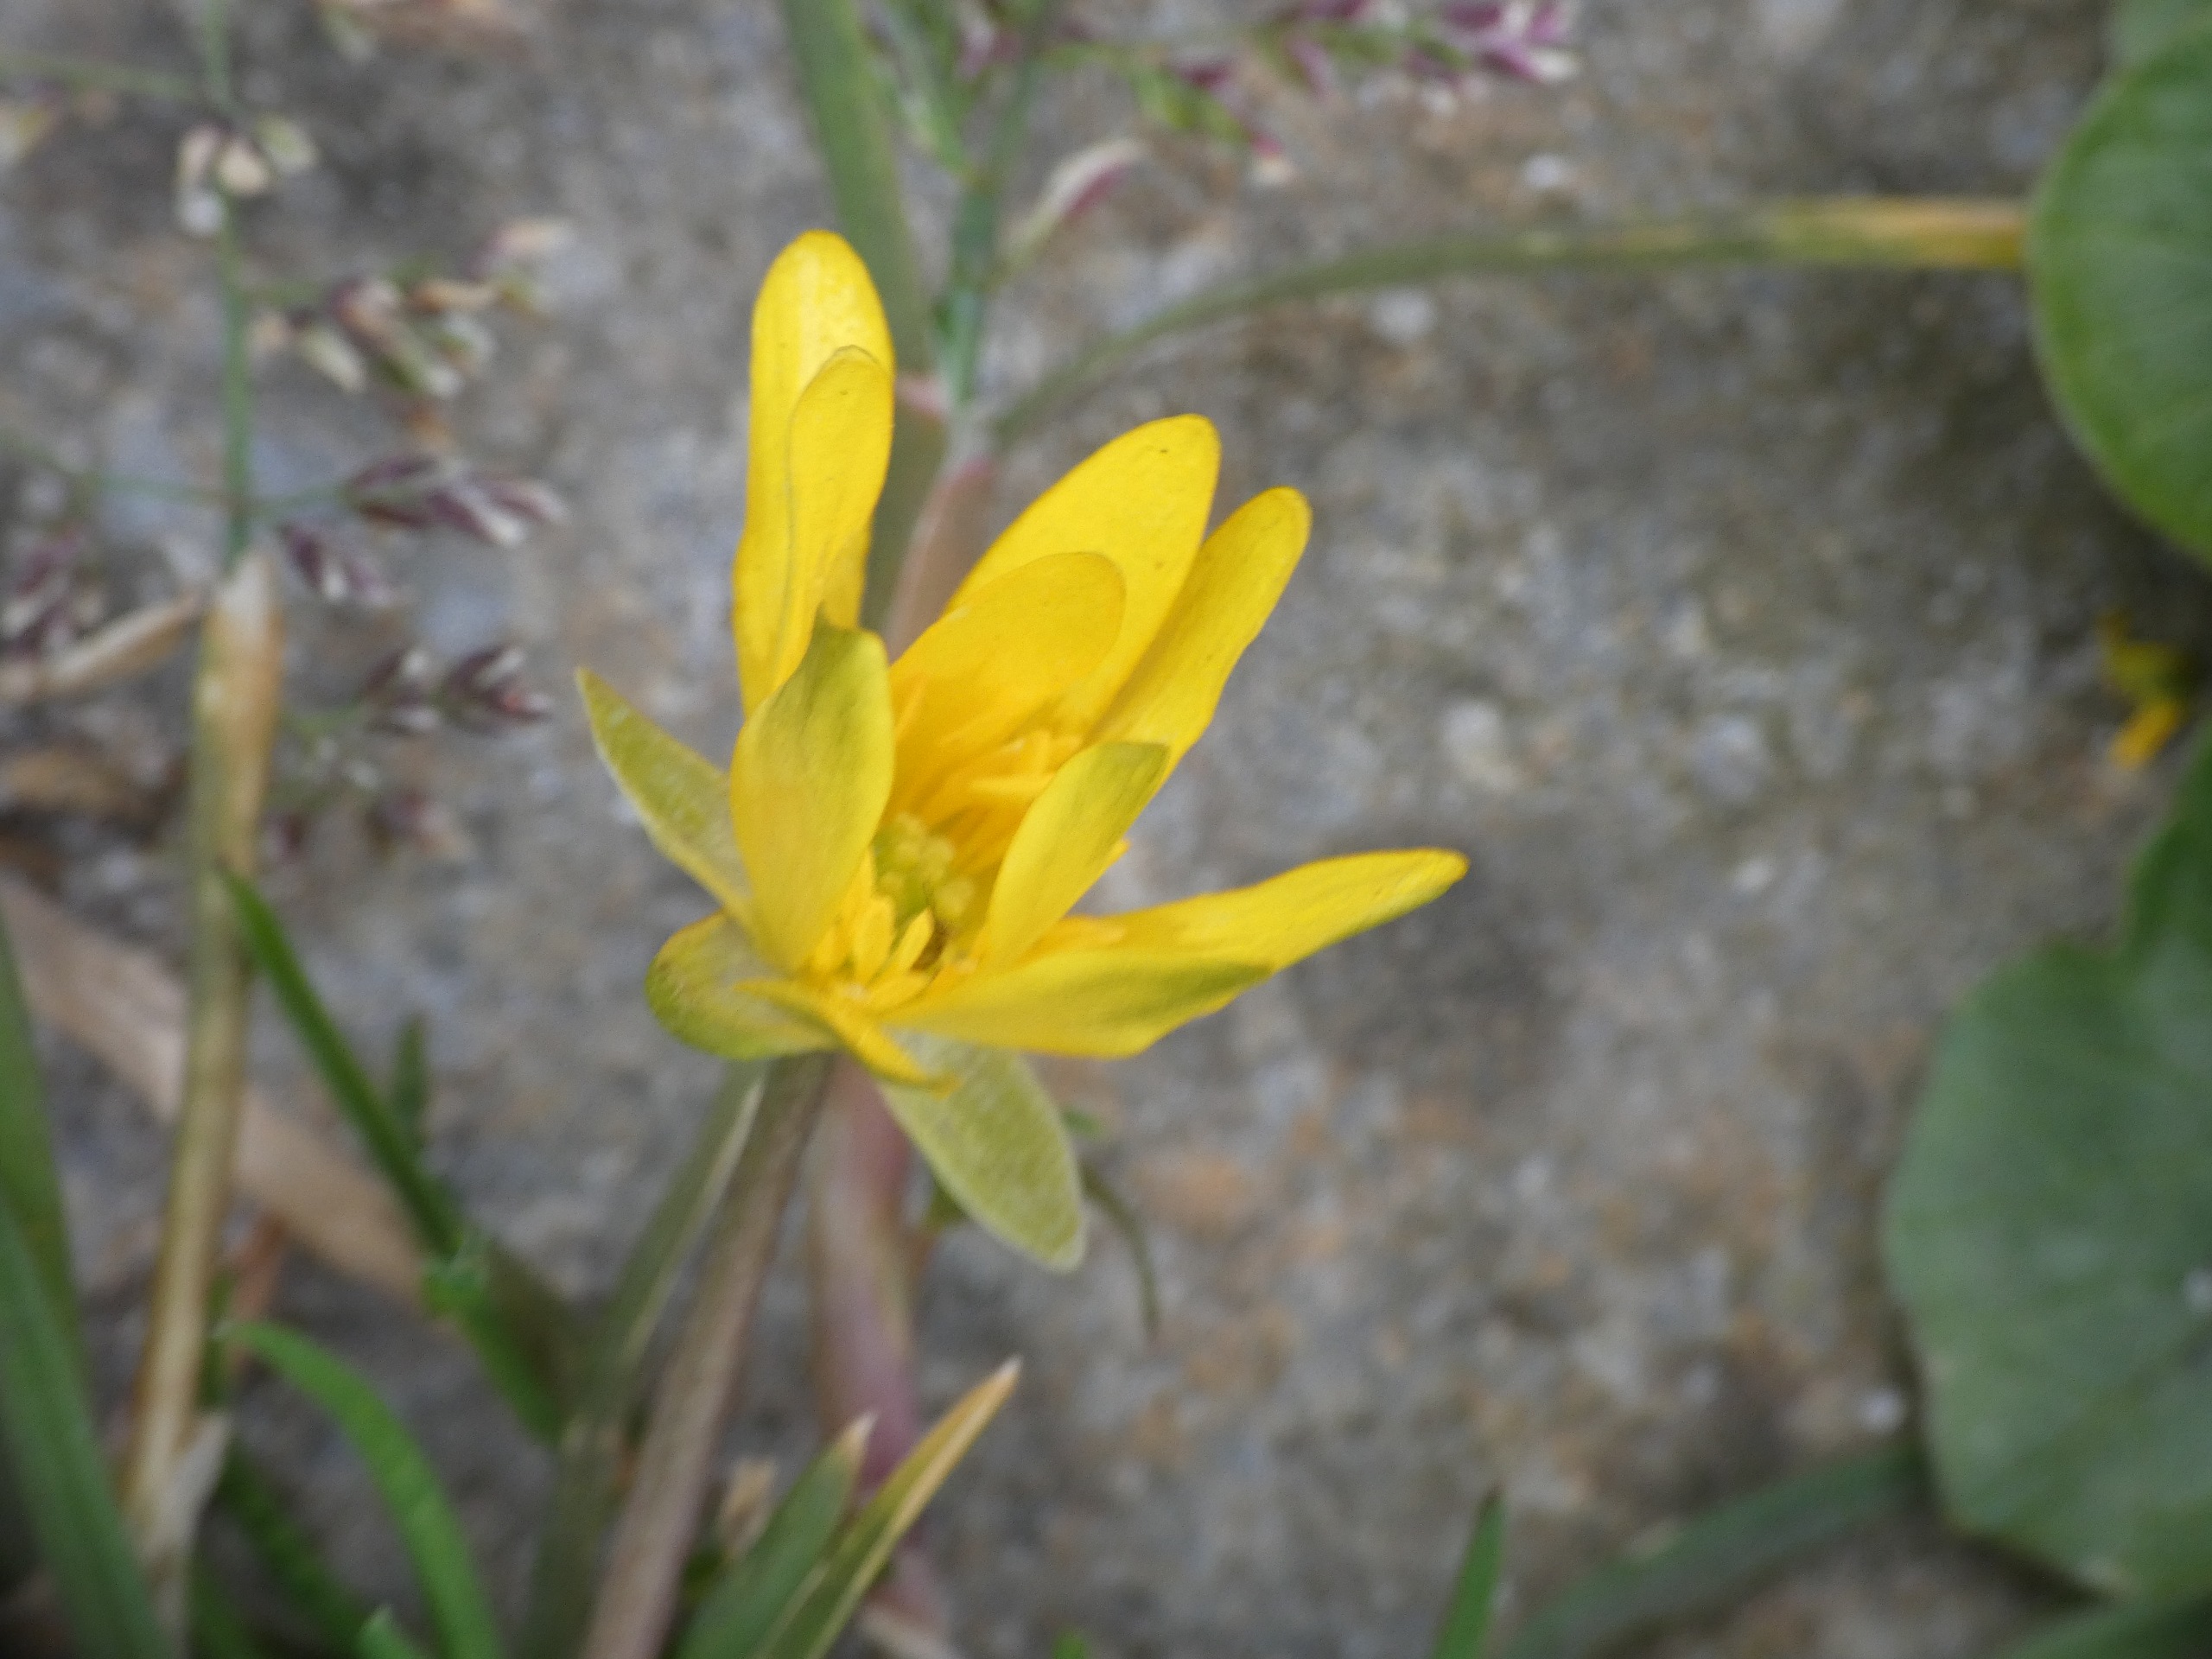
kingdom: Plantae
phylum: Tracheophyta
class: Magnoliopsida
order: Ranunculales
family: Ranunculaceae
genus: Ficaria
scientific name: Ficaria verna
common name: Vorterod
